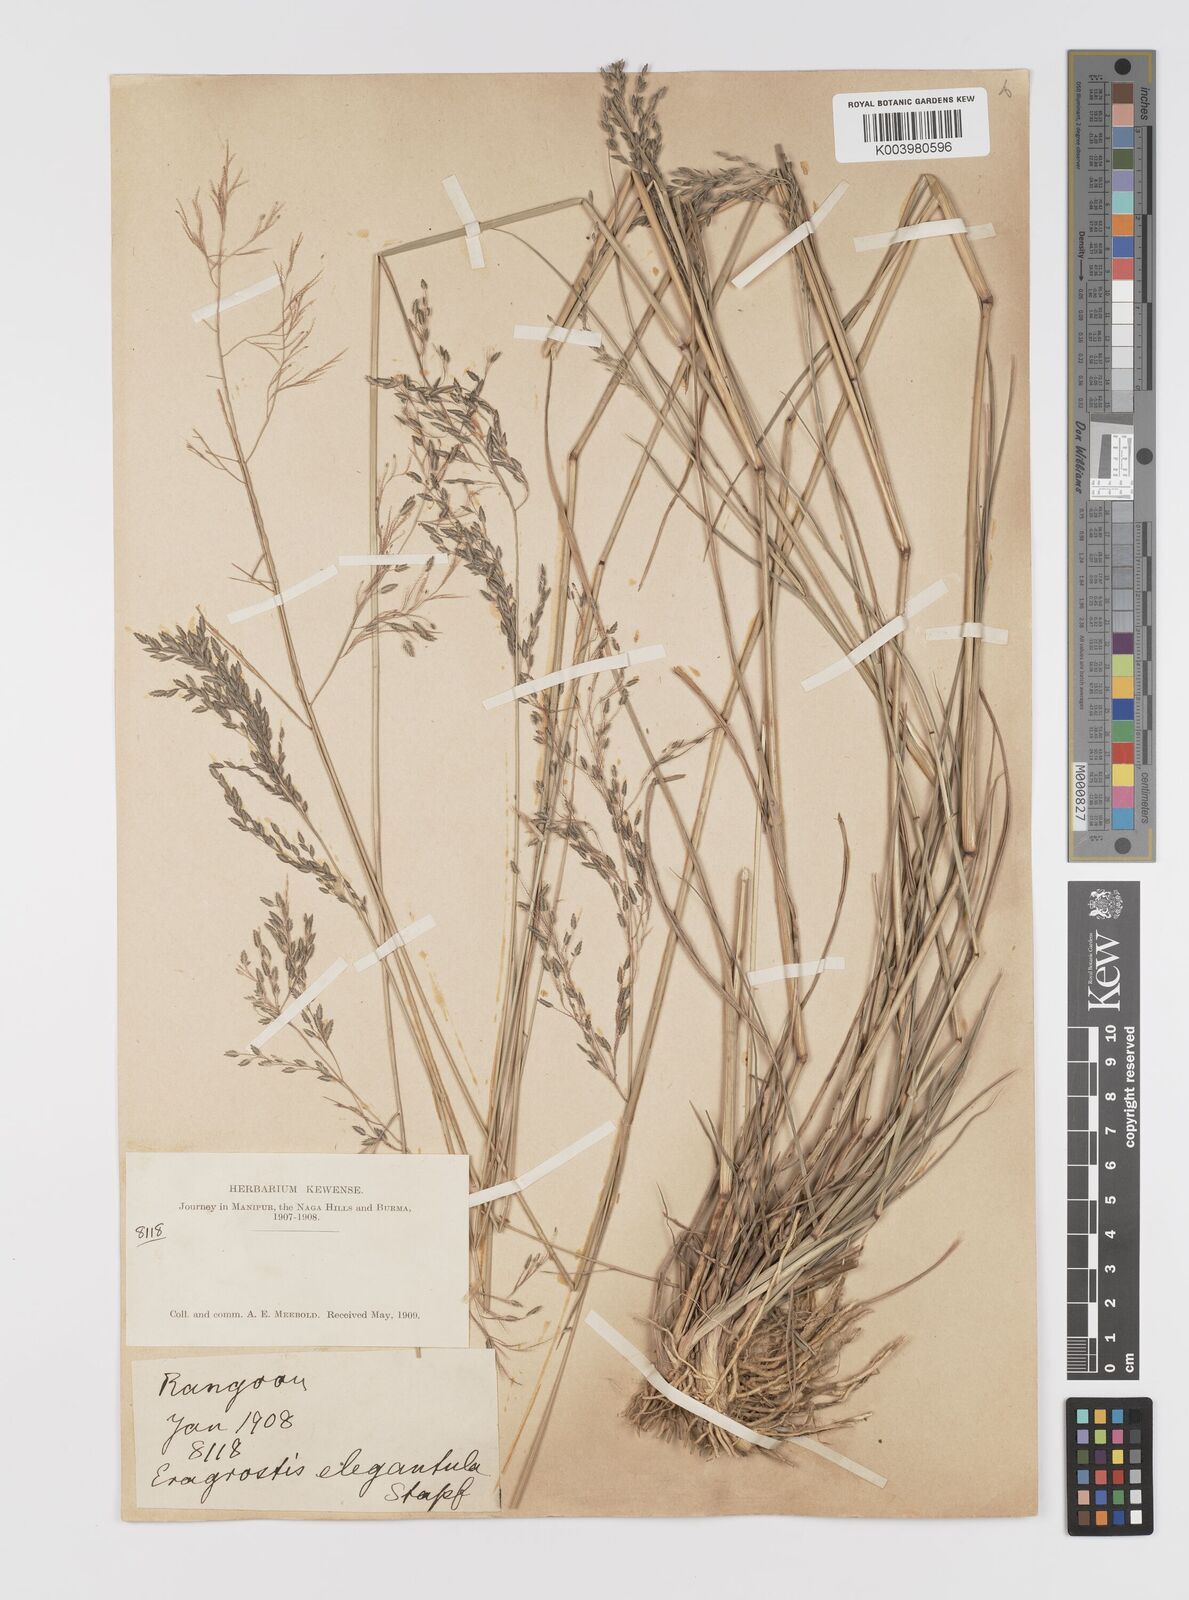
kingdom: Plantae
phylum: Tracheophyta
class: Liliopsida
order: Poales
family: Poaceae
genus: Eragrostis
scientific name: Eragrostis atrovirens
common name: Thalia lovegrass
